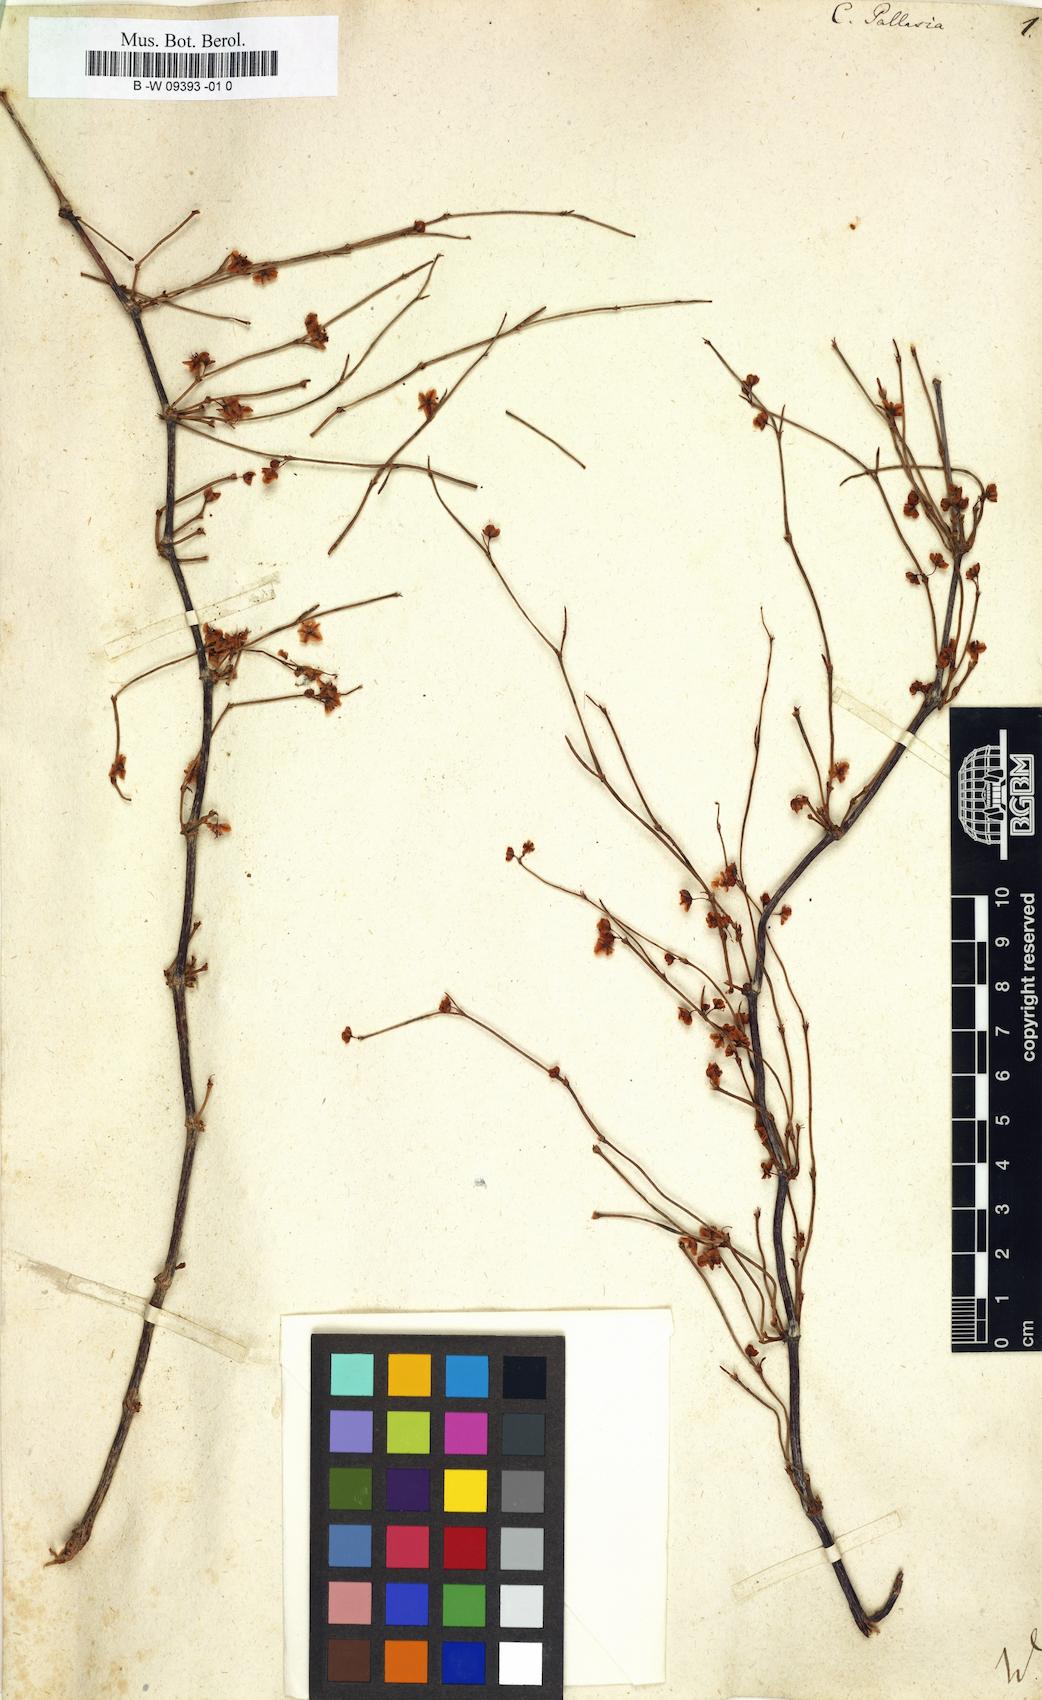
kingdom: Plantae
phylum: Tracheophyta
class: Magnoliopsida
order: Caryophyllales
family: Polygonaceae
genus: Calligonum
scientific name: Calligonum aphyllum
